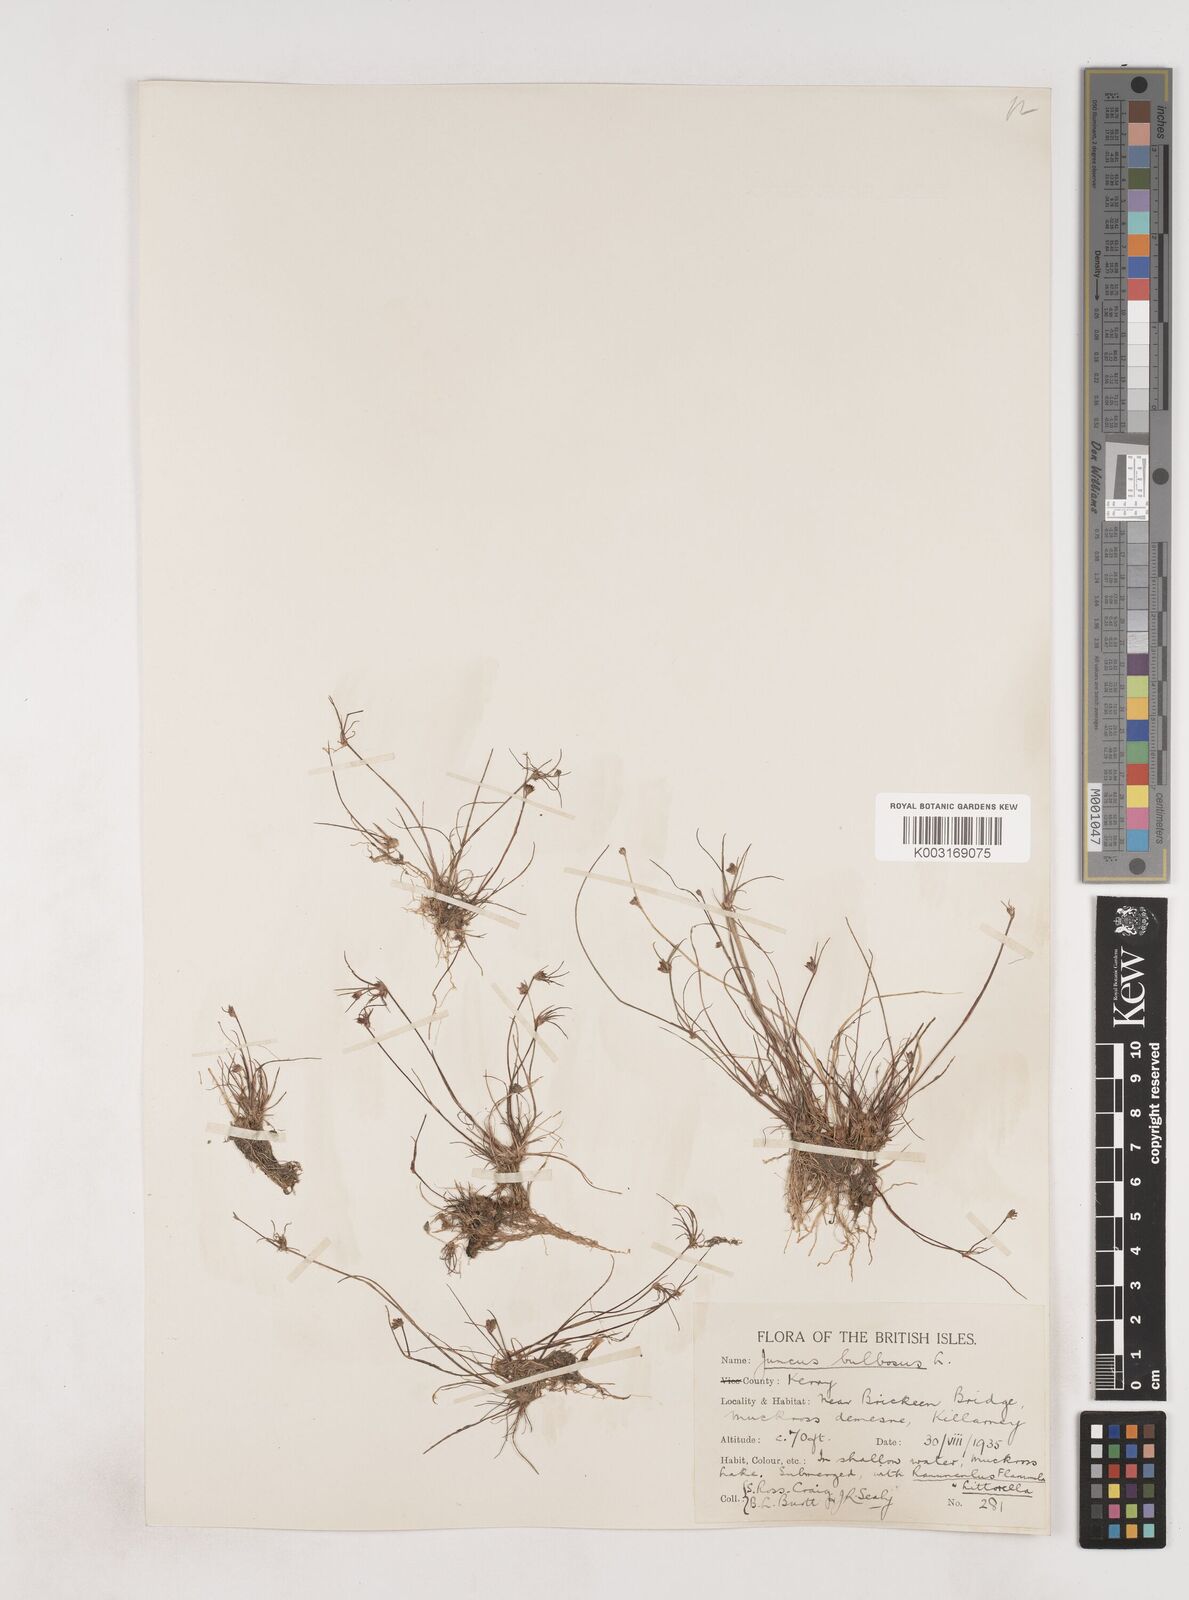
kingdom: Plantae
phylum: Tracheophyta
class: Liliopsida
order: Poales
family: Juncaceae
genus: Juncus
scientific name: Juncus bulbosus
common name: Bulbous rush
